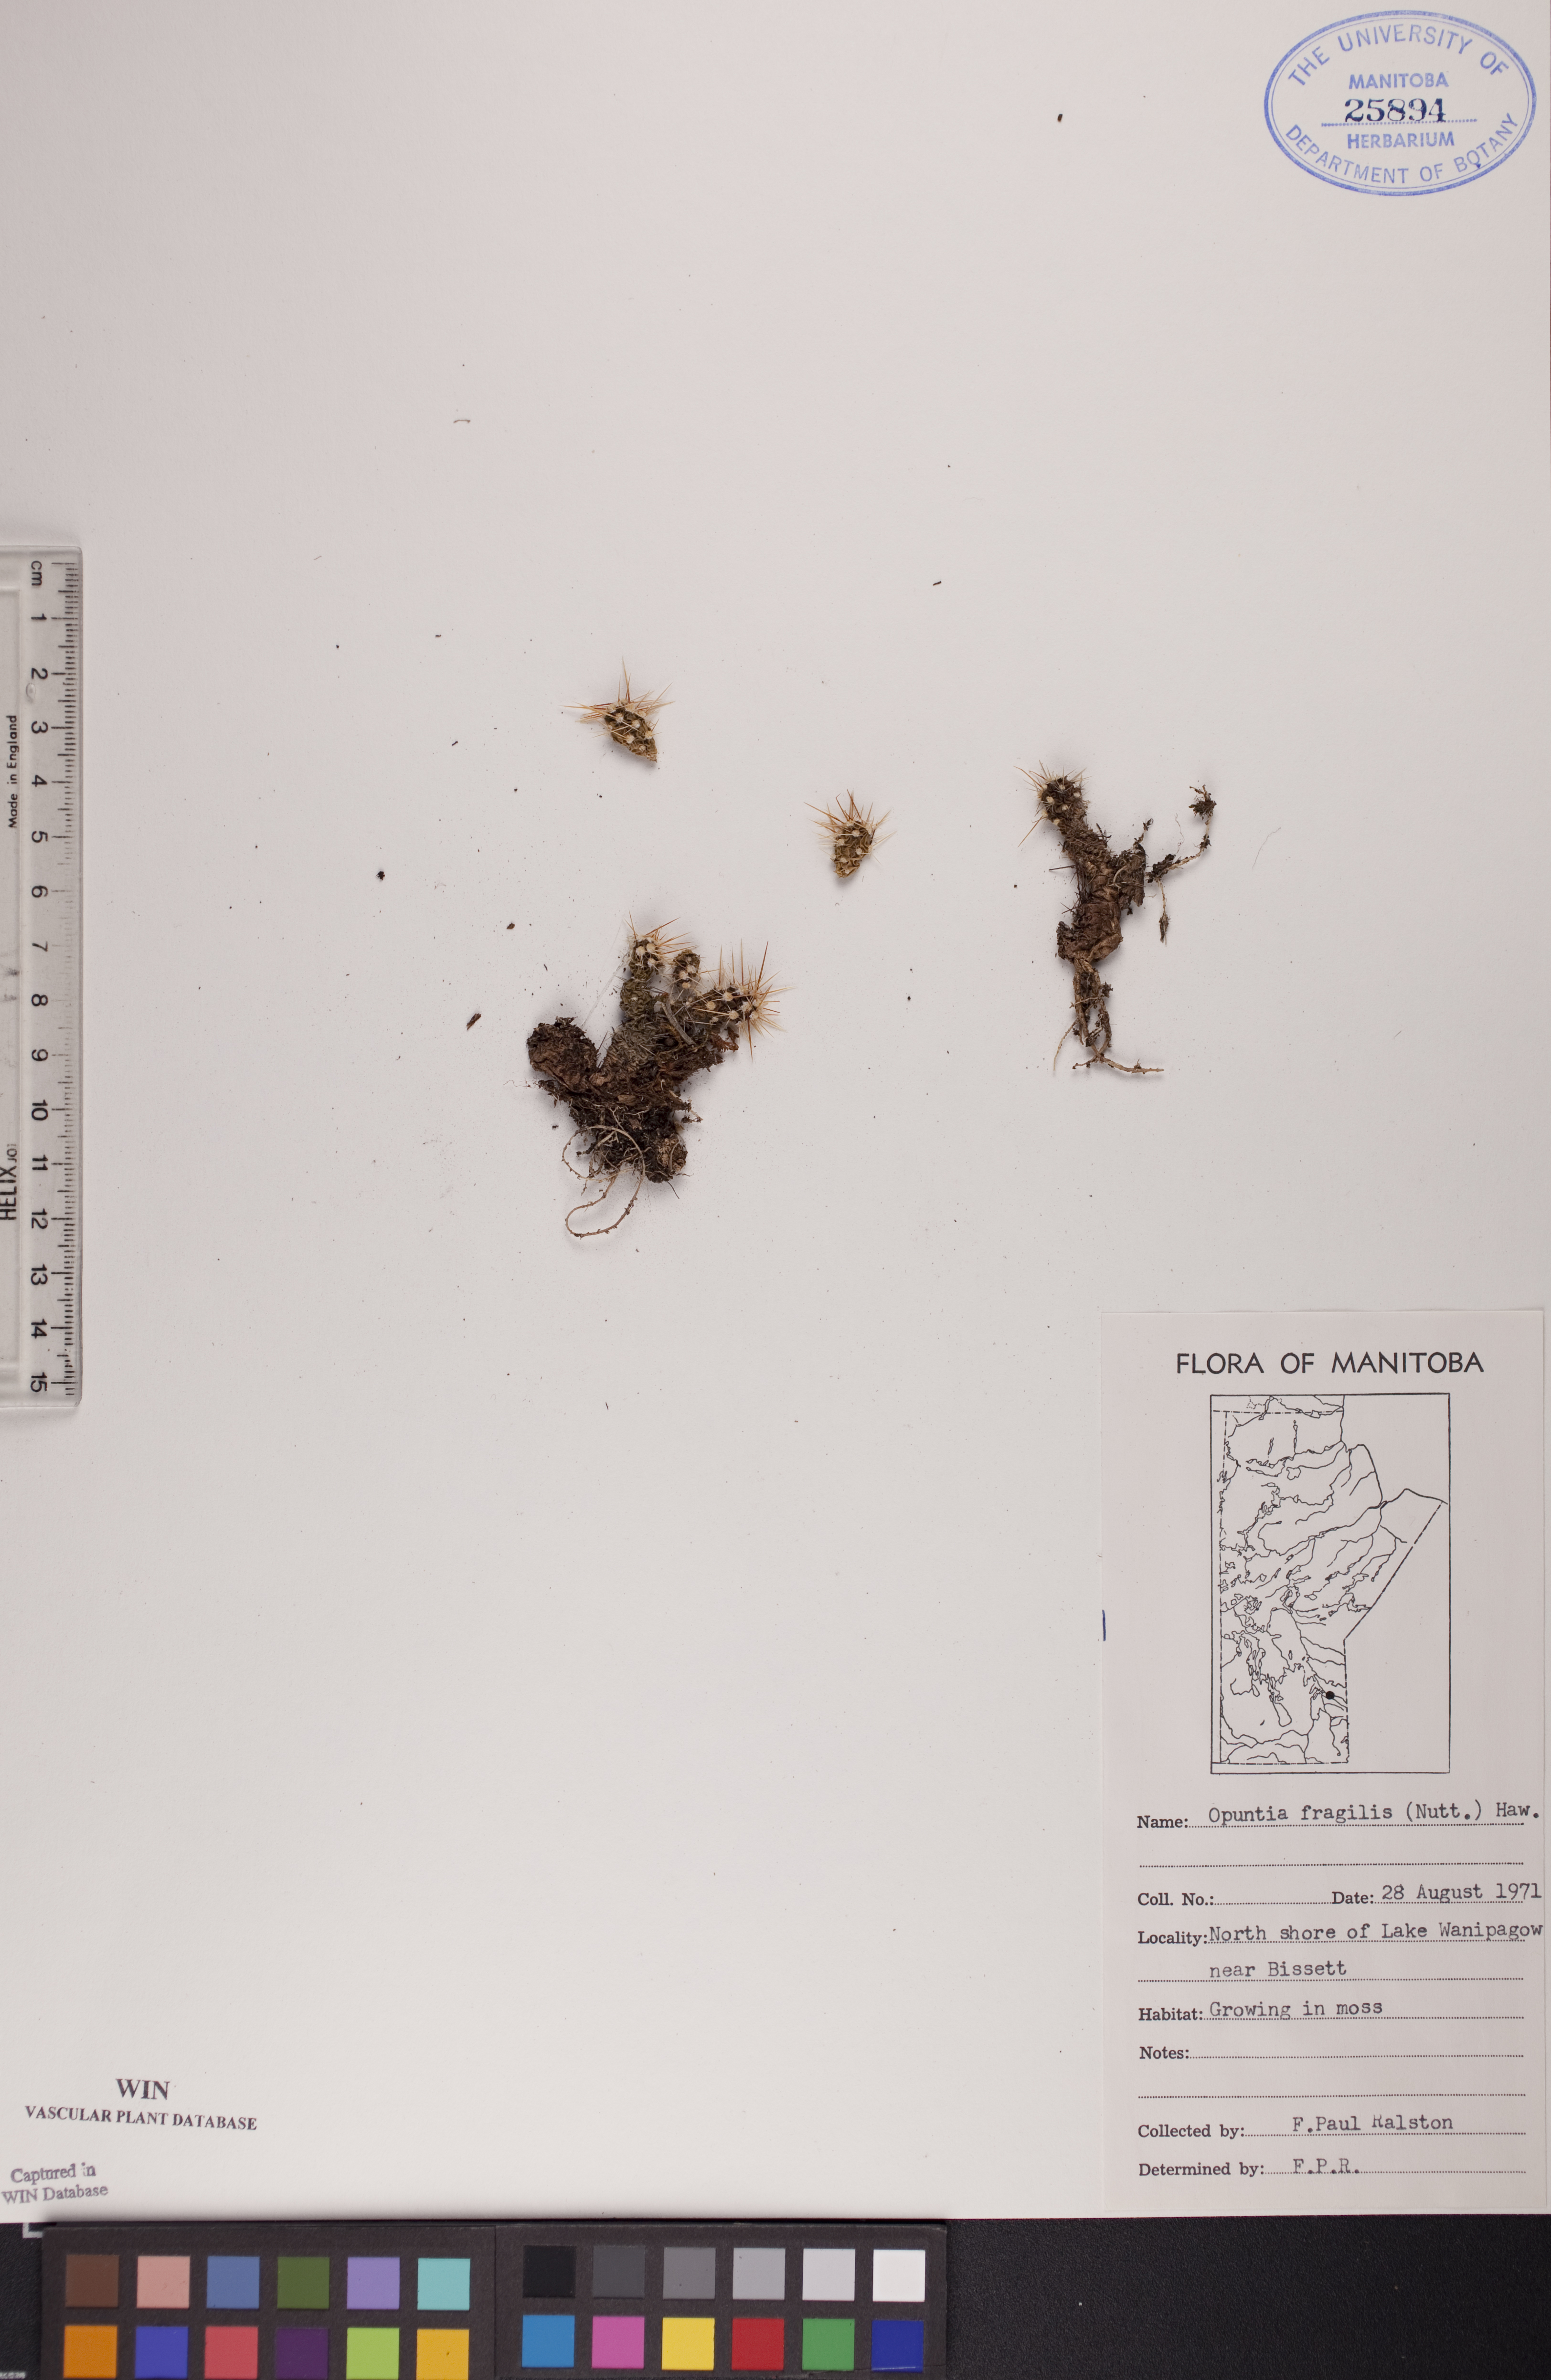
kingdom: Plantae
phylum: Tracheophyta
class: Magnoliopsida
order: Caryophyllales
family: Cactaceae
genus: Opuntia
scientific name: Opuntia fragilis
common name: Brittle cactus
